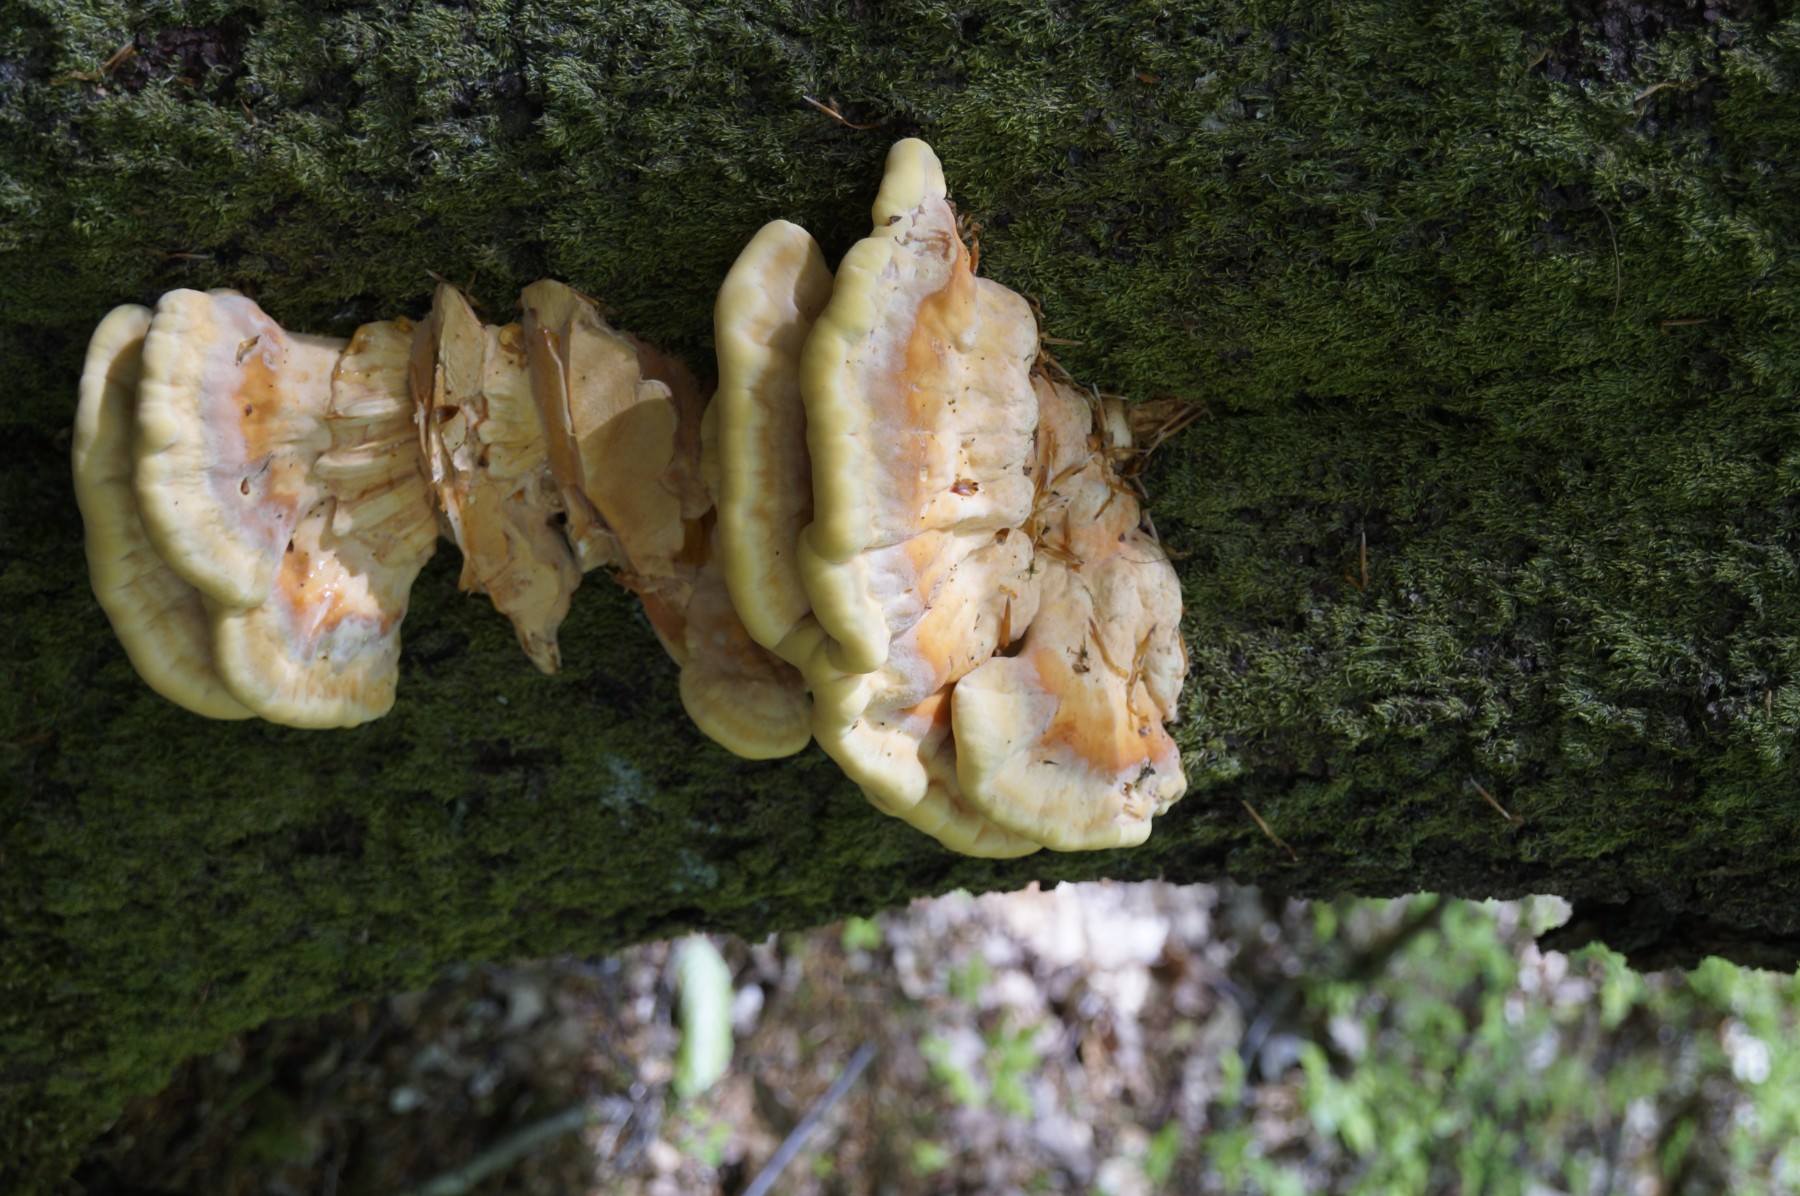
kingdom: Fungi
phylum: Basidiomycota
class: Agaricomycetes
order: Polyporales
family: Laetiporaceae
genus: Laetiporus
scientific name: Laetiporus sulphureus
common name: svovlporesvamp
